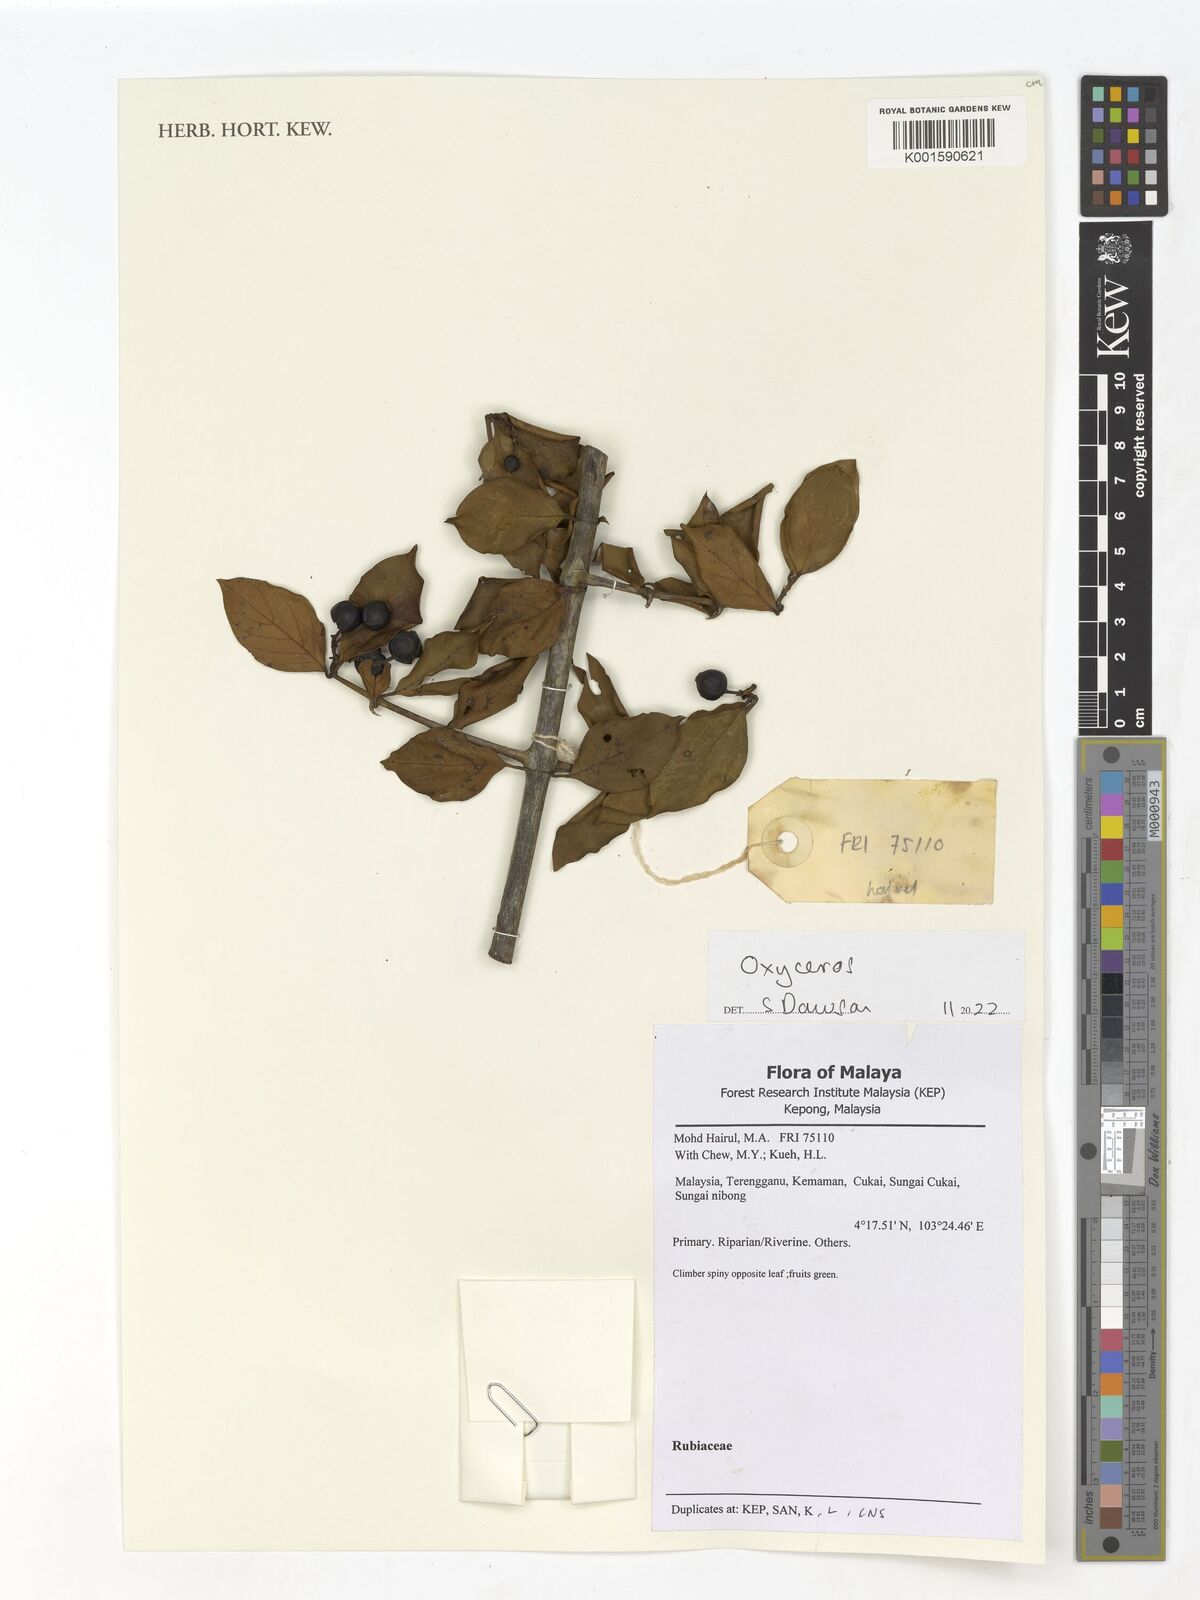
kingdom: Plantae
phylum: Tracheophyta
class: Magnoliopsida
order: Gentianales
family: Rubiaceae
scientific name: Rubiaceae
